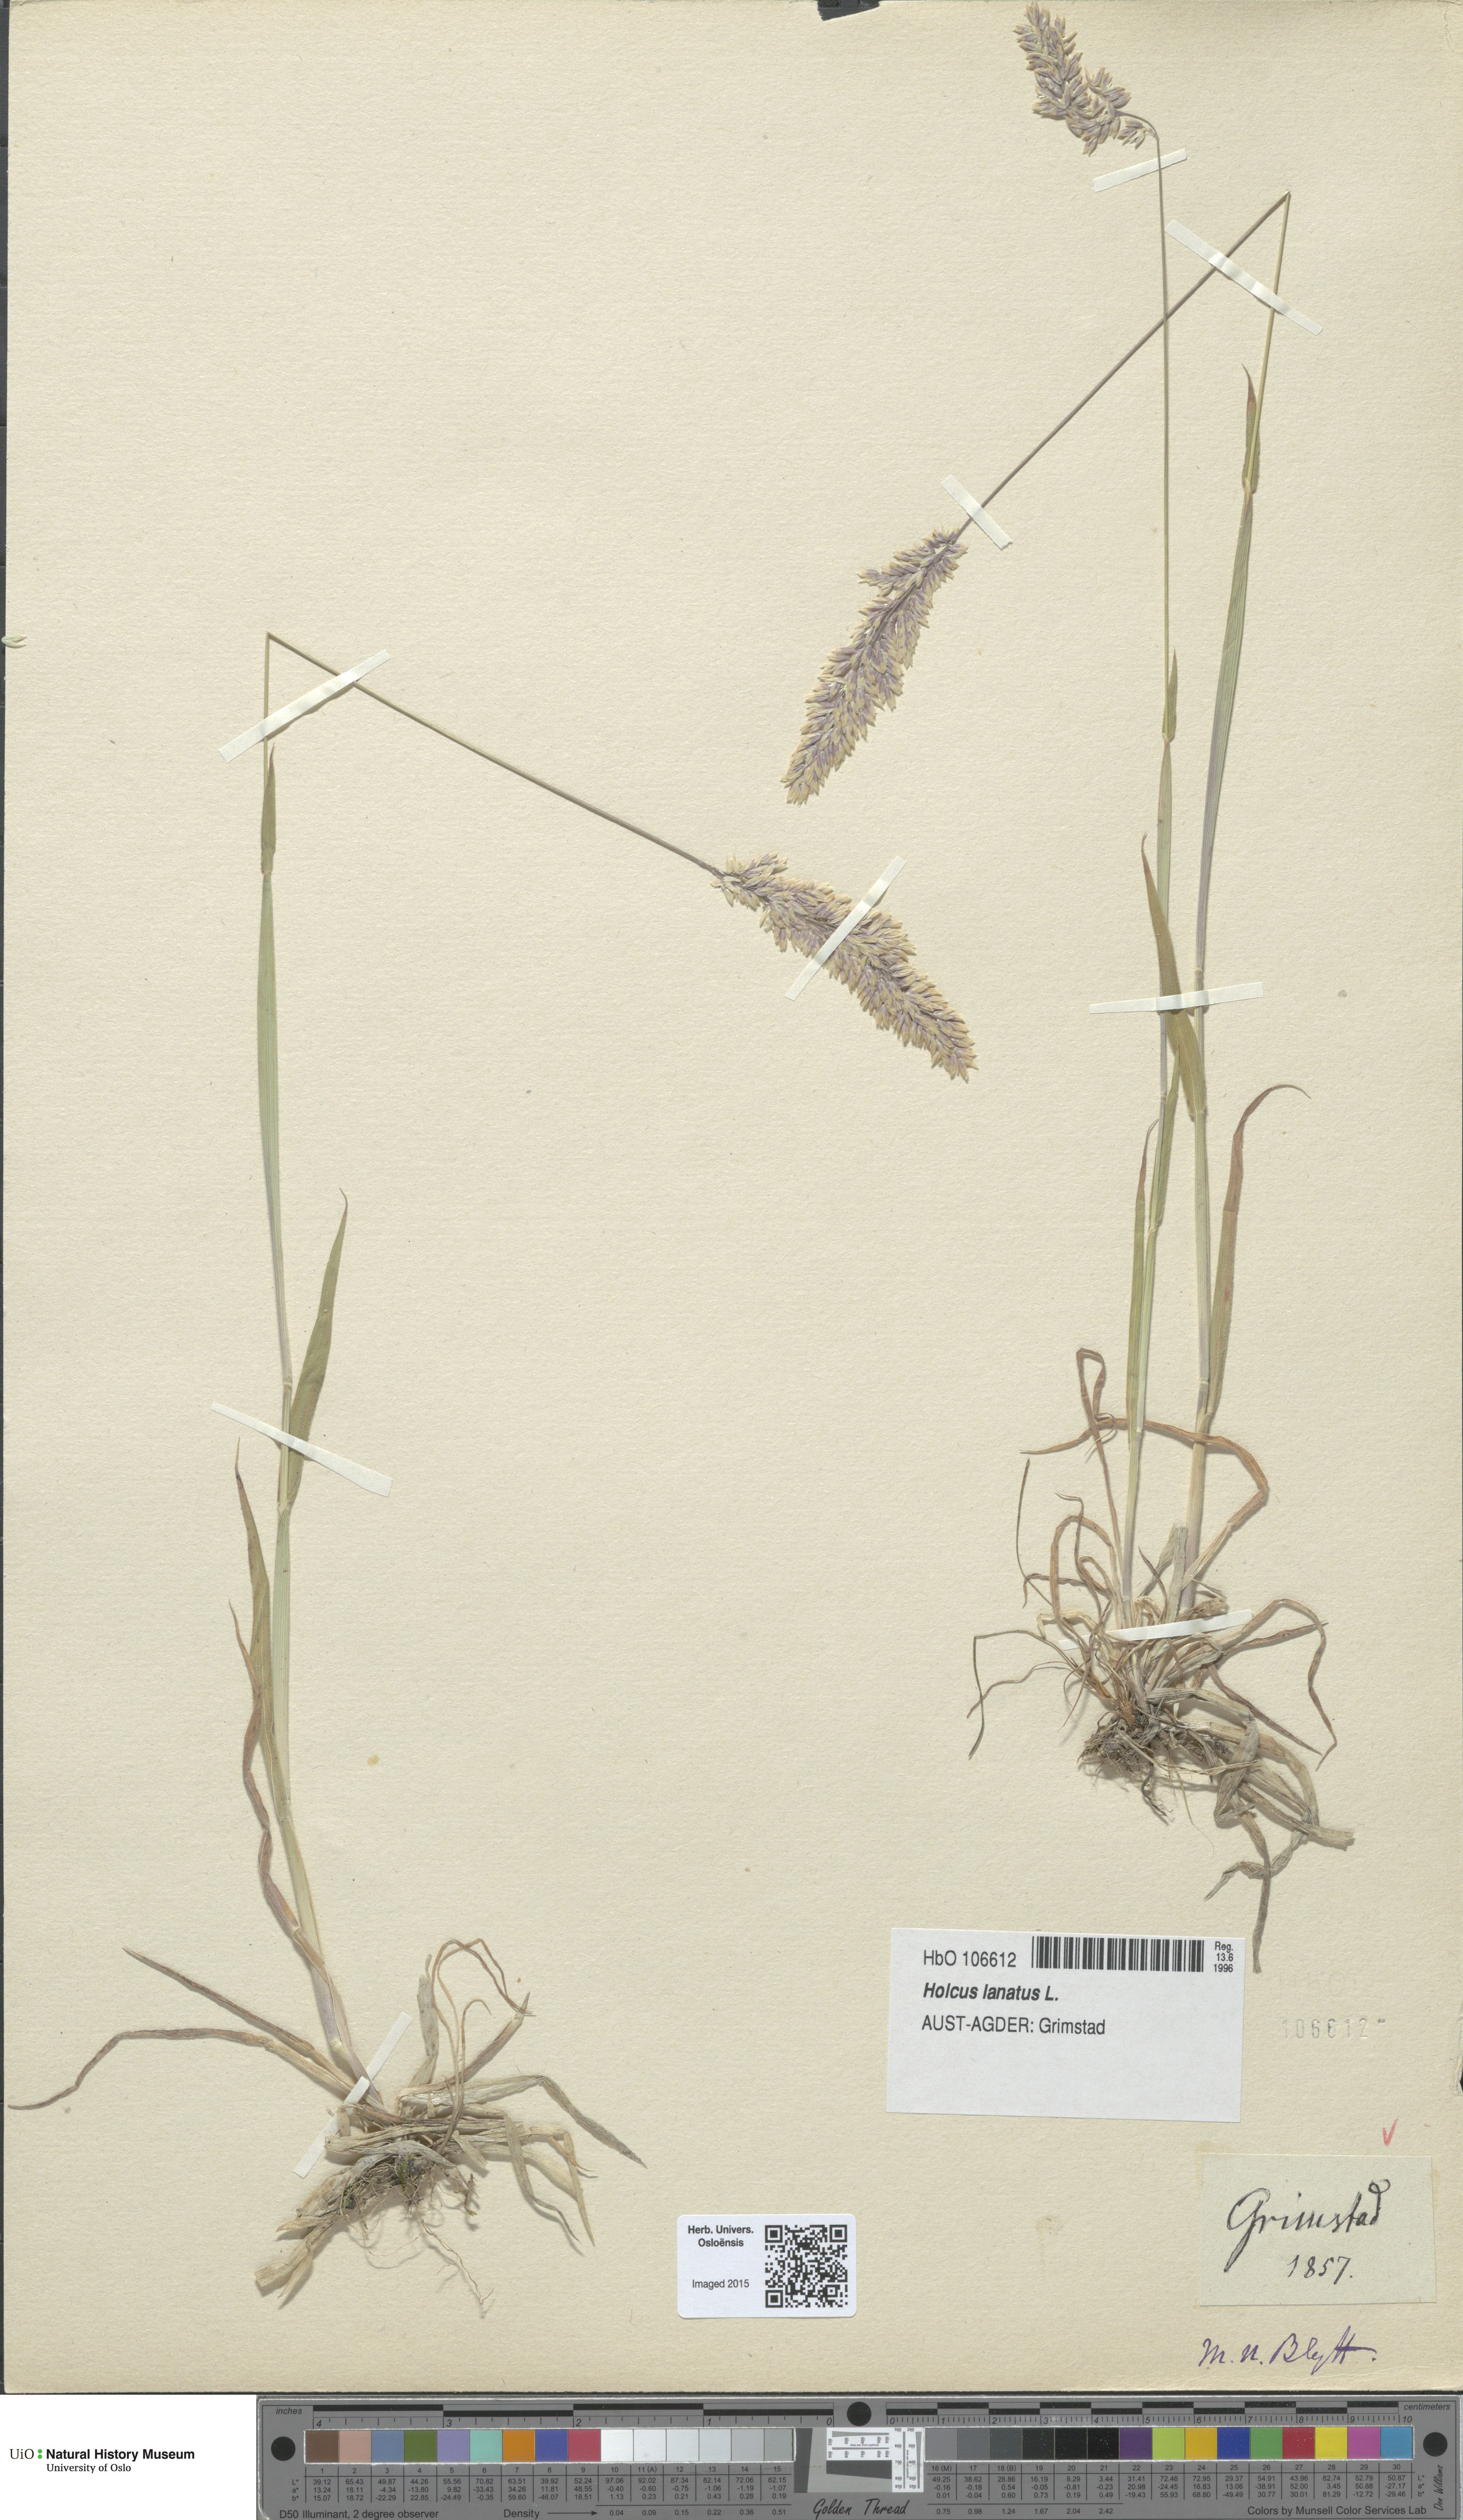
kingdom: Plantae
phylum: Tracheophyta
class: Liliopsida
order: Poales
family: Poaceae
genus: Holcus
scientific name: Holcus lanatus
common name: Yorkshire-fog
